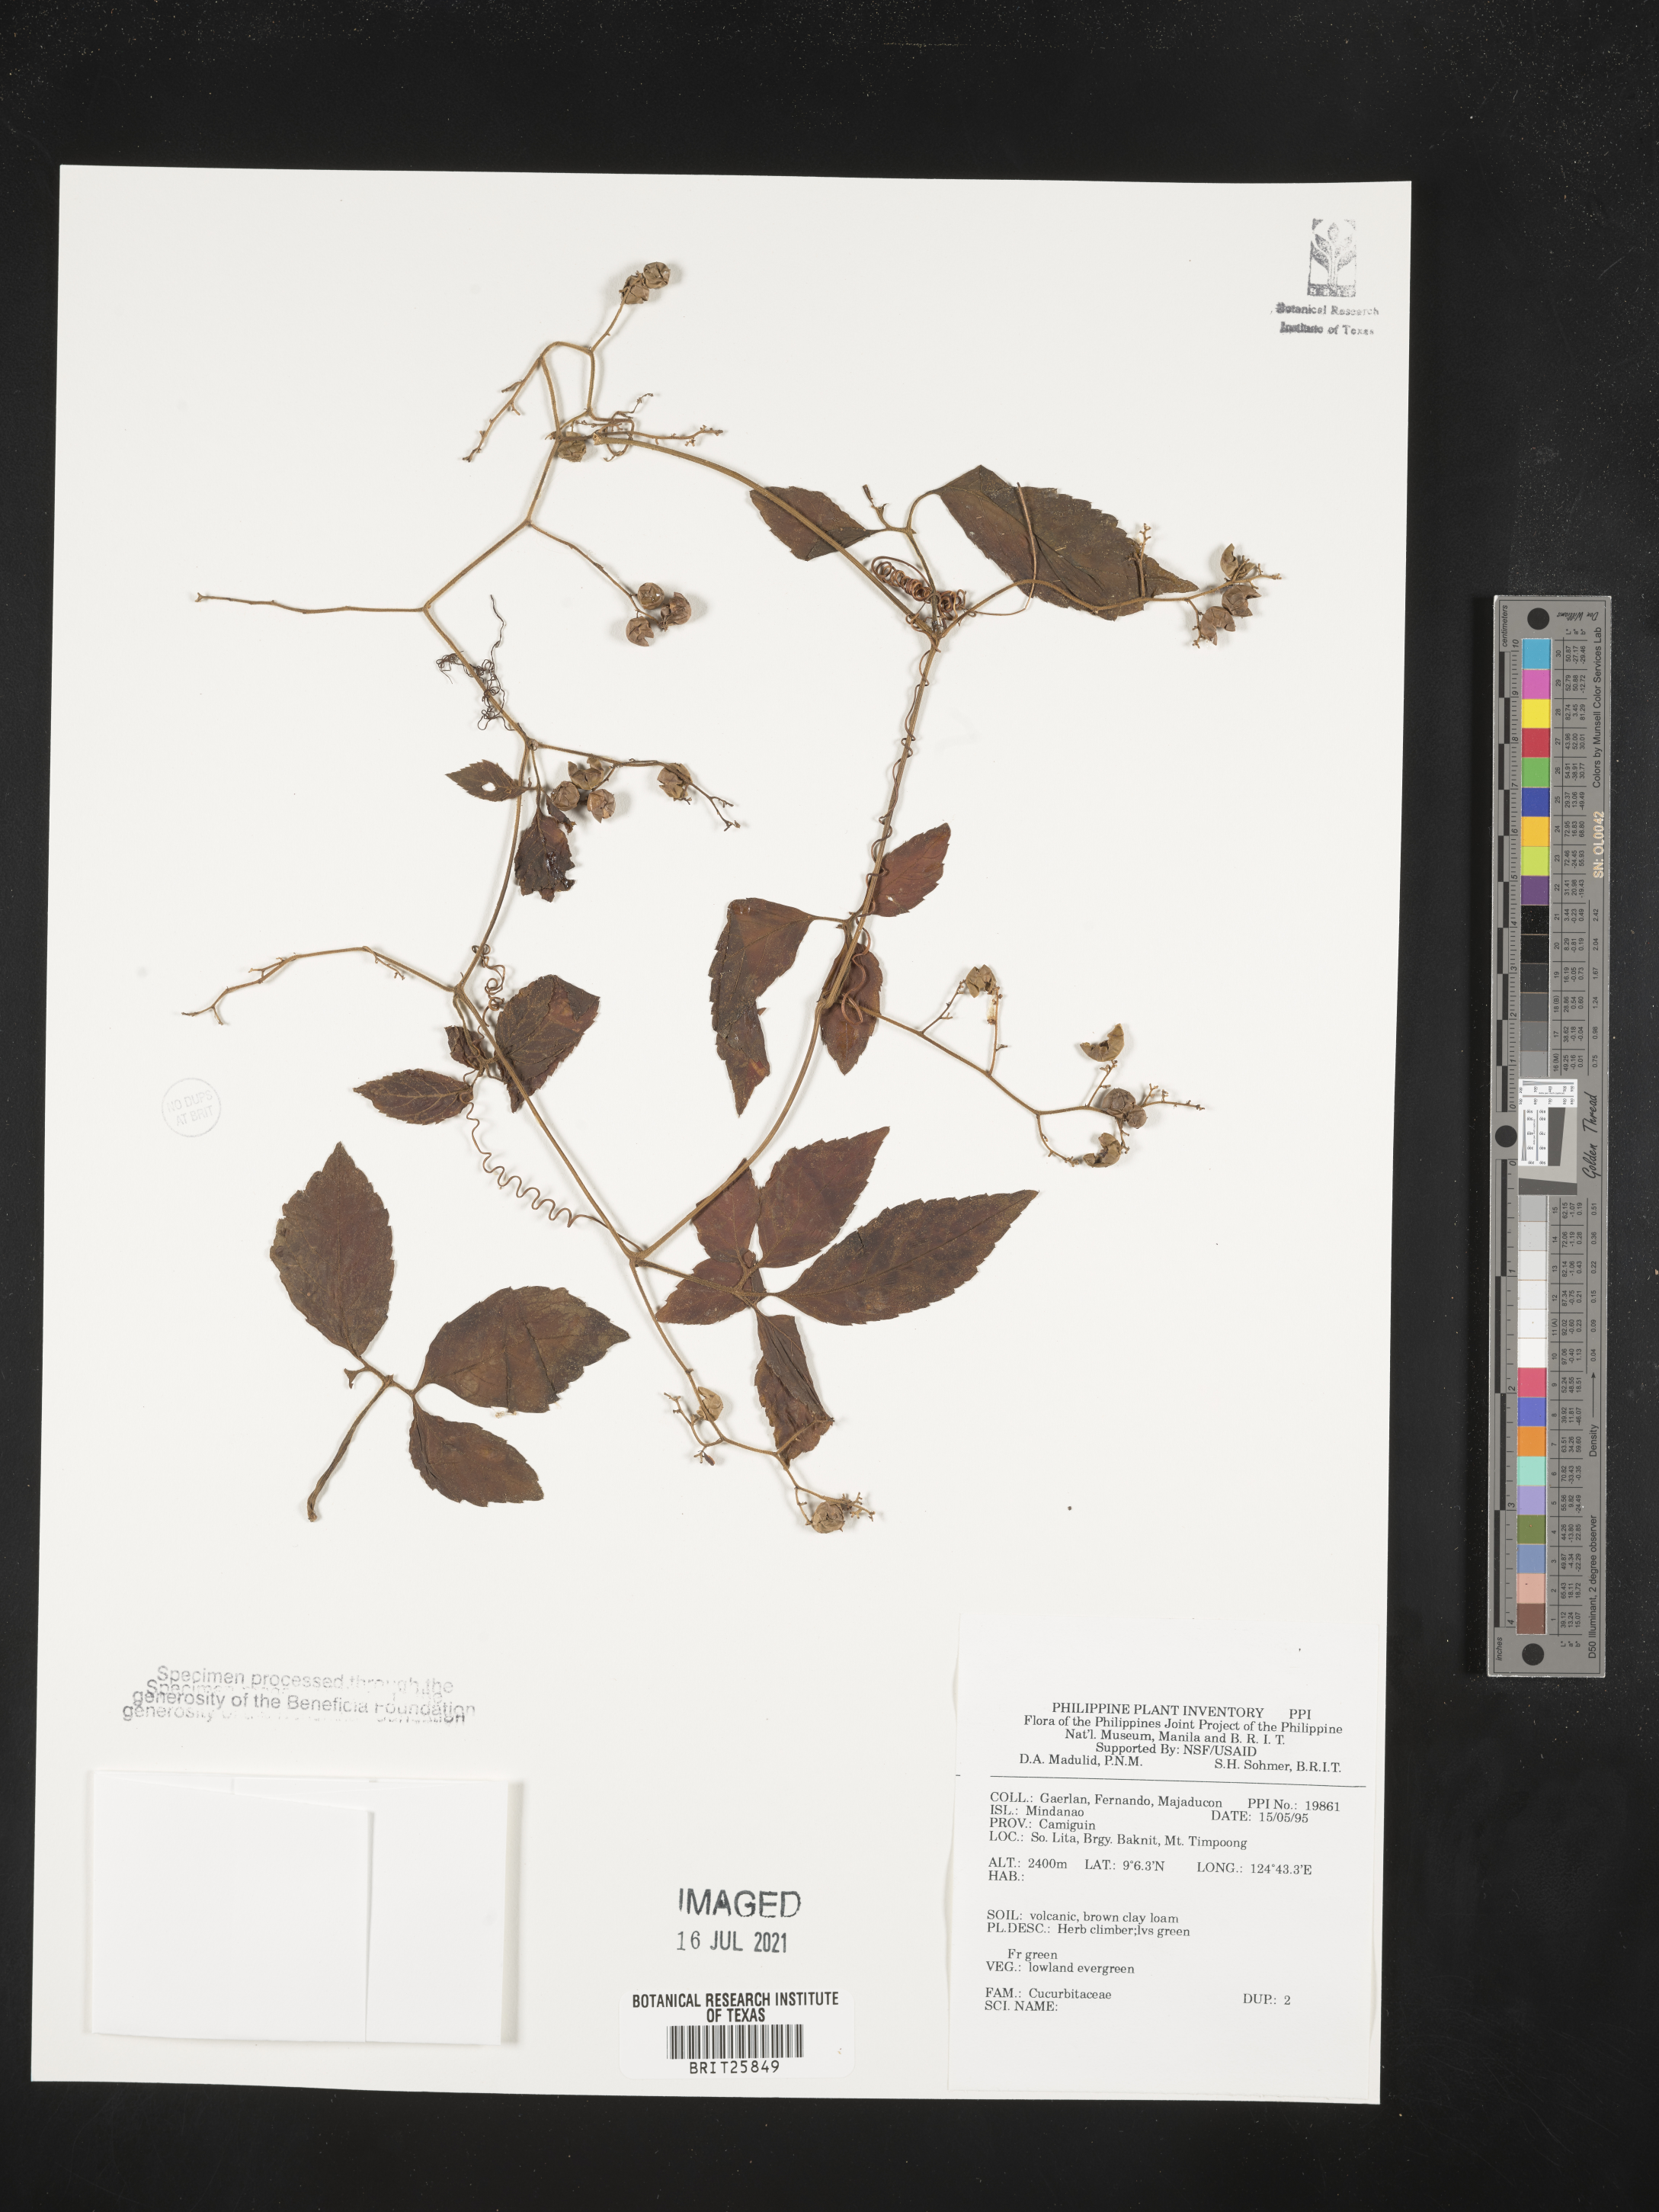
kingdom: Plantae
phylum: Tracheophyta
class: Magnoliopsida
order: Cucurbitales
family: Cucurbitaceae
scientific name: Cucurbitaceae
